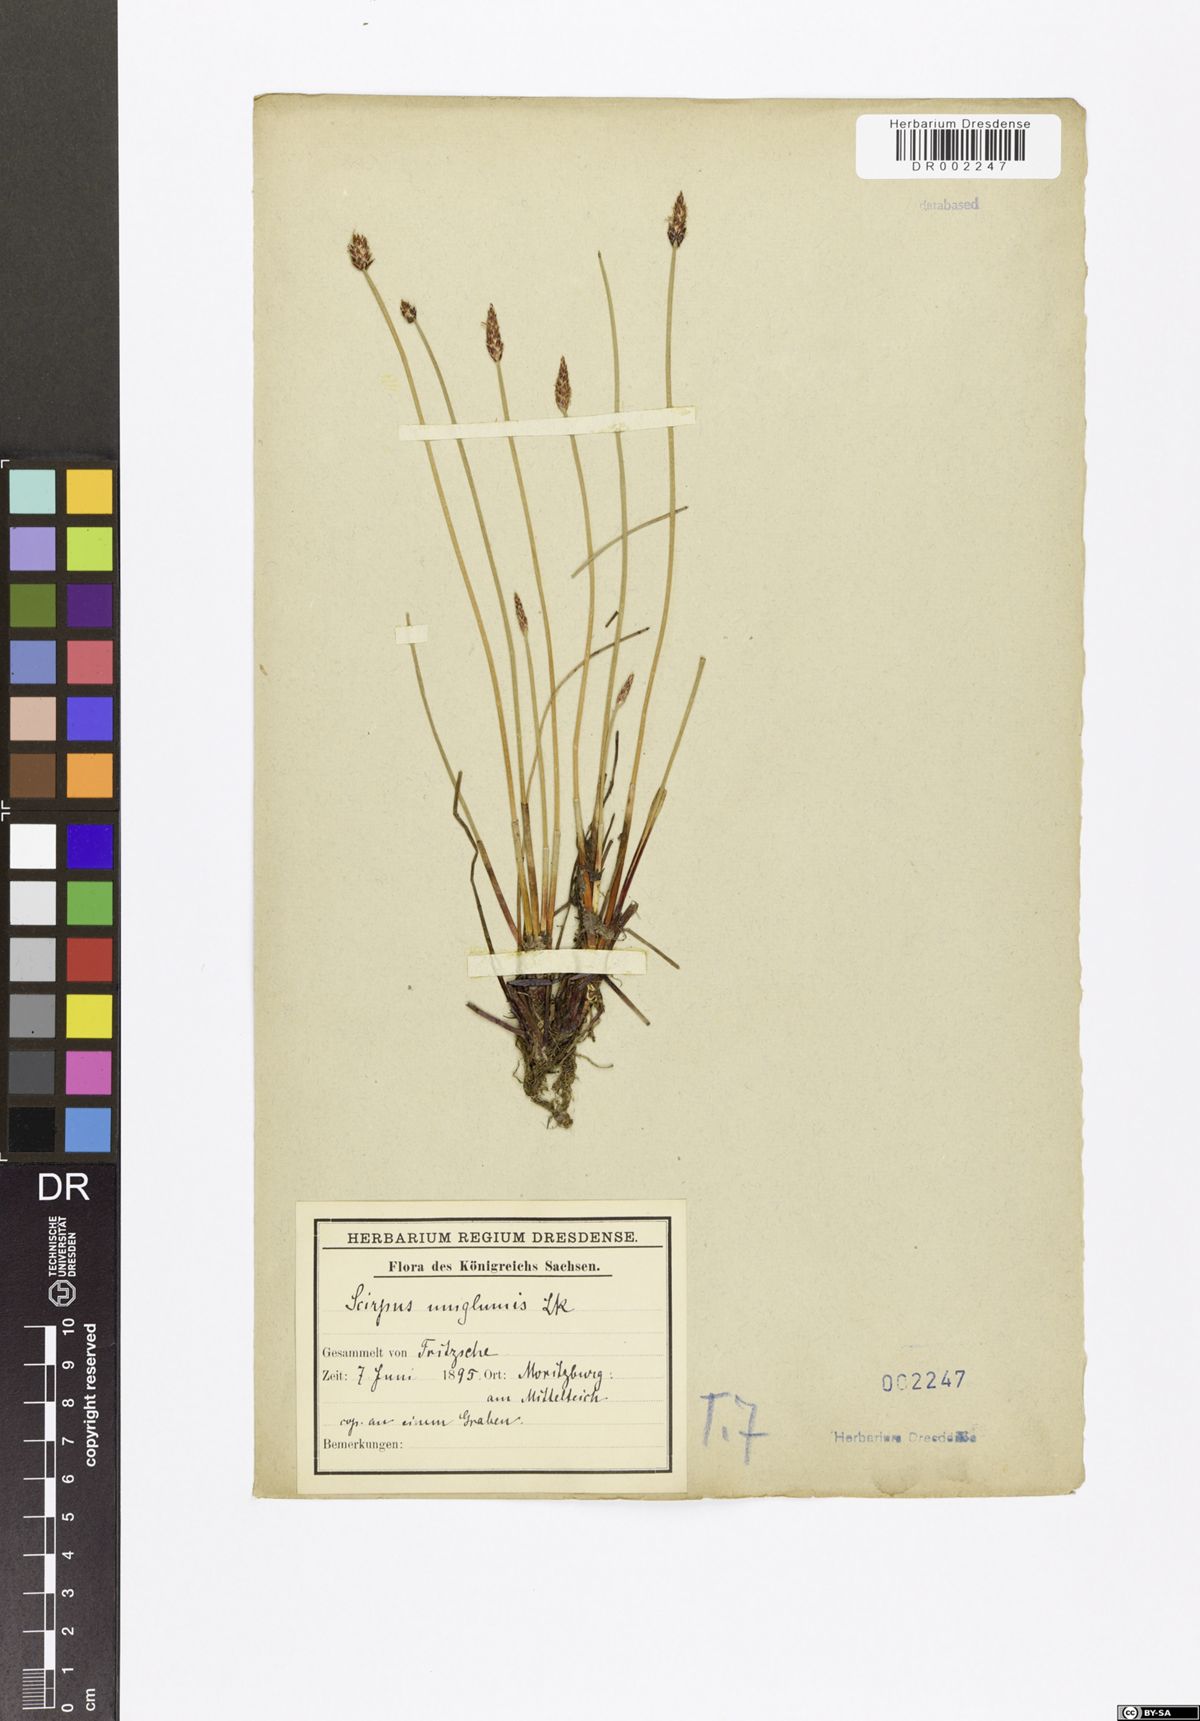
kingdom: Plantae
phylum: Tracheophyta
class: Liliopsida
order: Poales
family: Cyperaceae
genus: Eleocharis
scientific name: Eleocharis uniglumis
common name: Slender spike-rush
